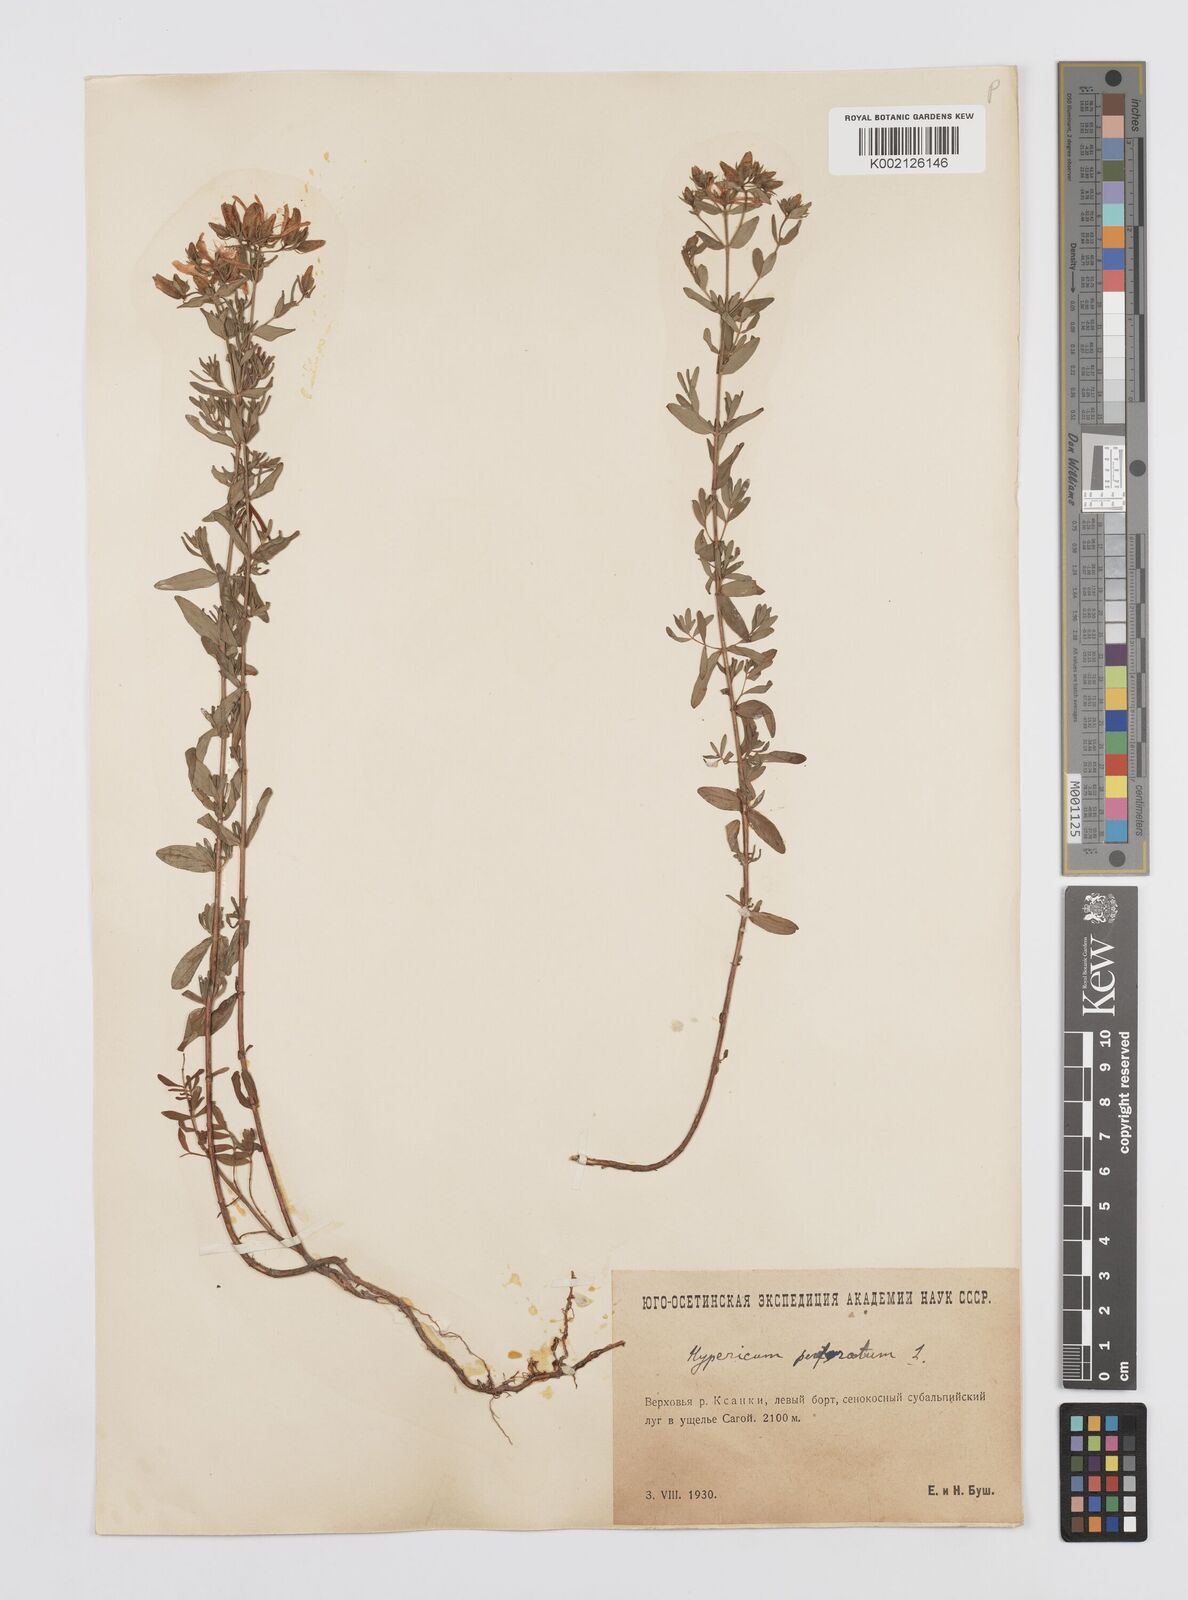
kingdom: Plantae
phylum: Tracheophyta
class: Magnoliopsida
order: Malpighiales
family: Hypericaceae
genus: Hypericum
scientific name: Hypericum perfoliatum
